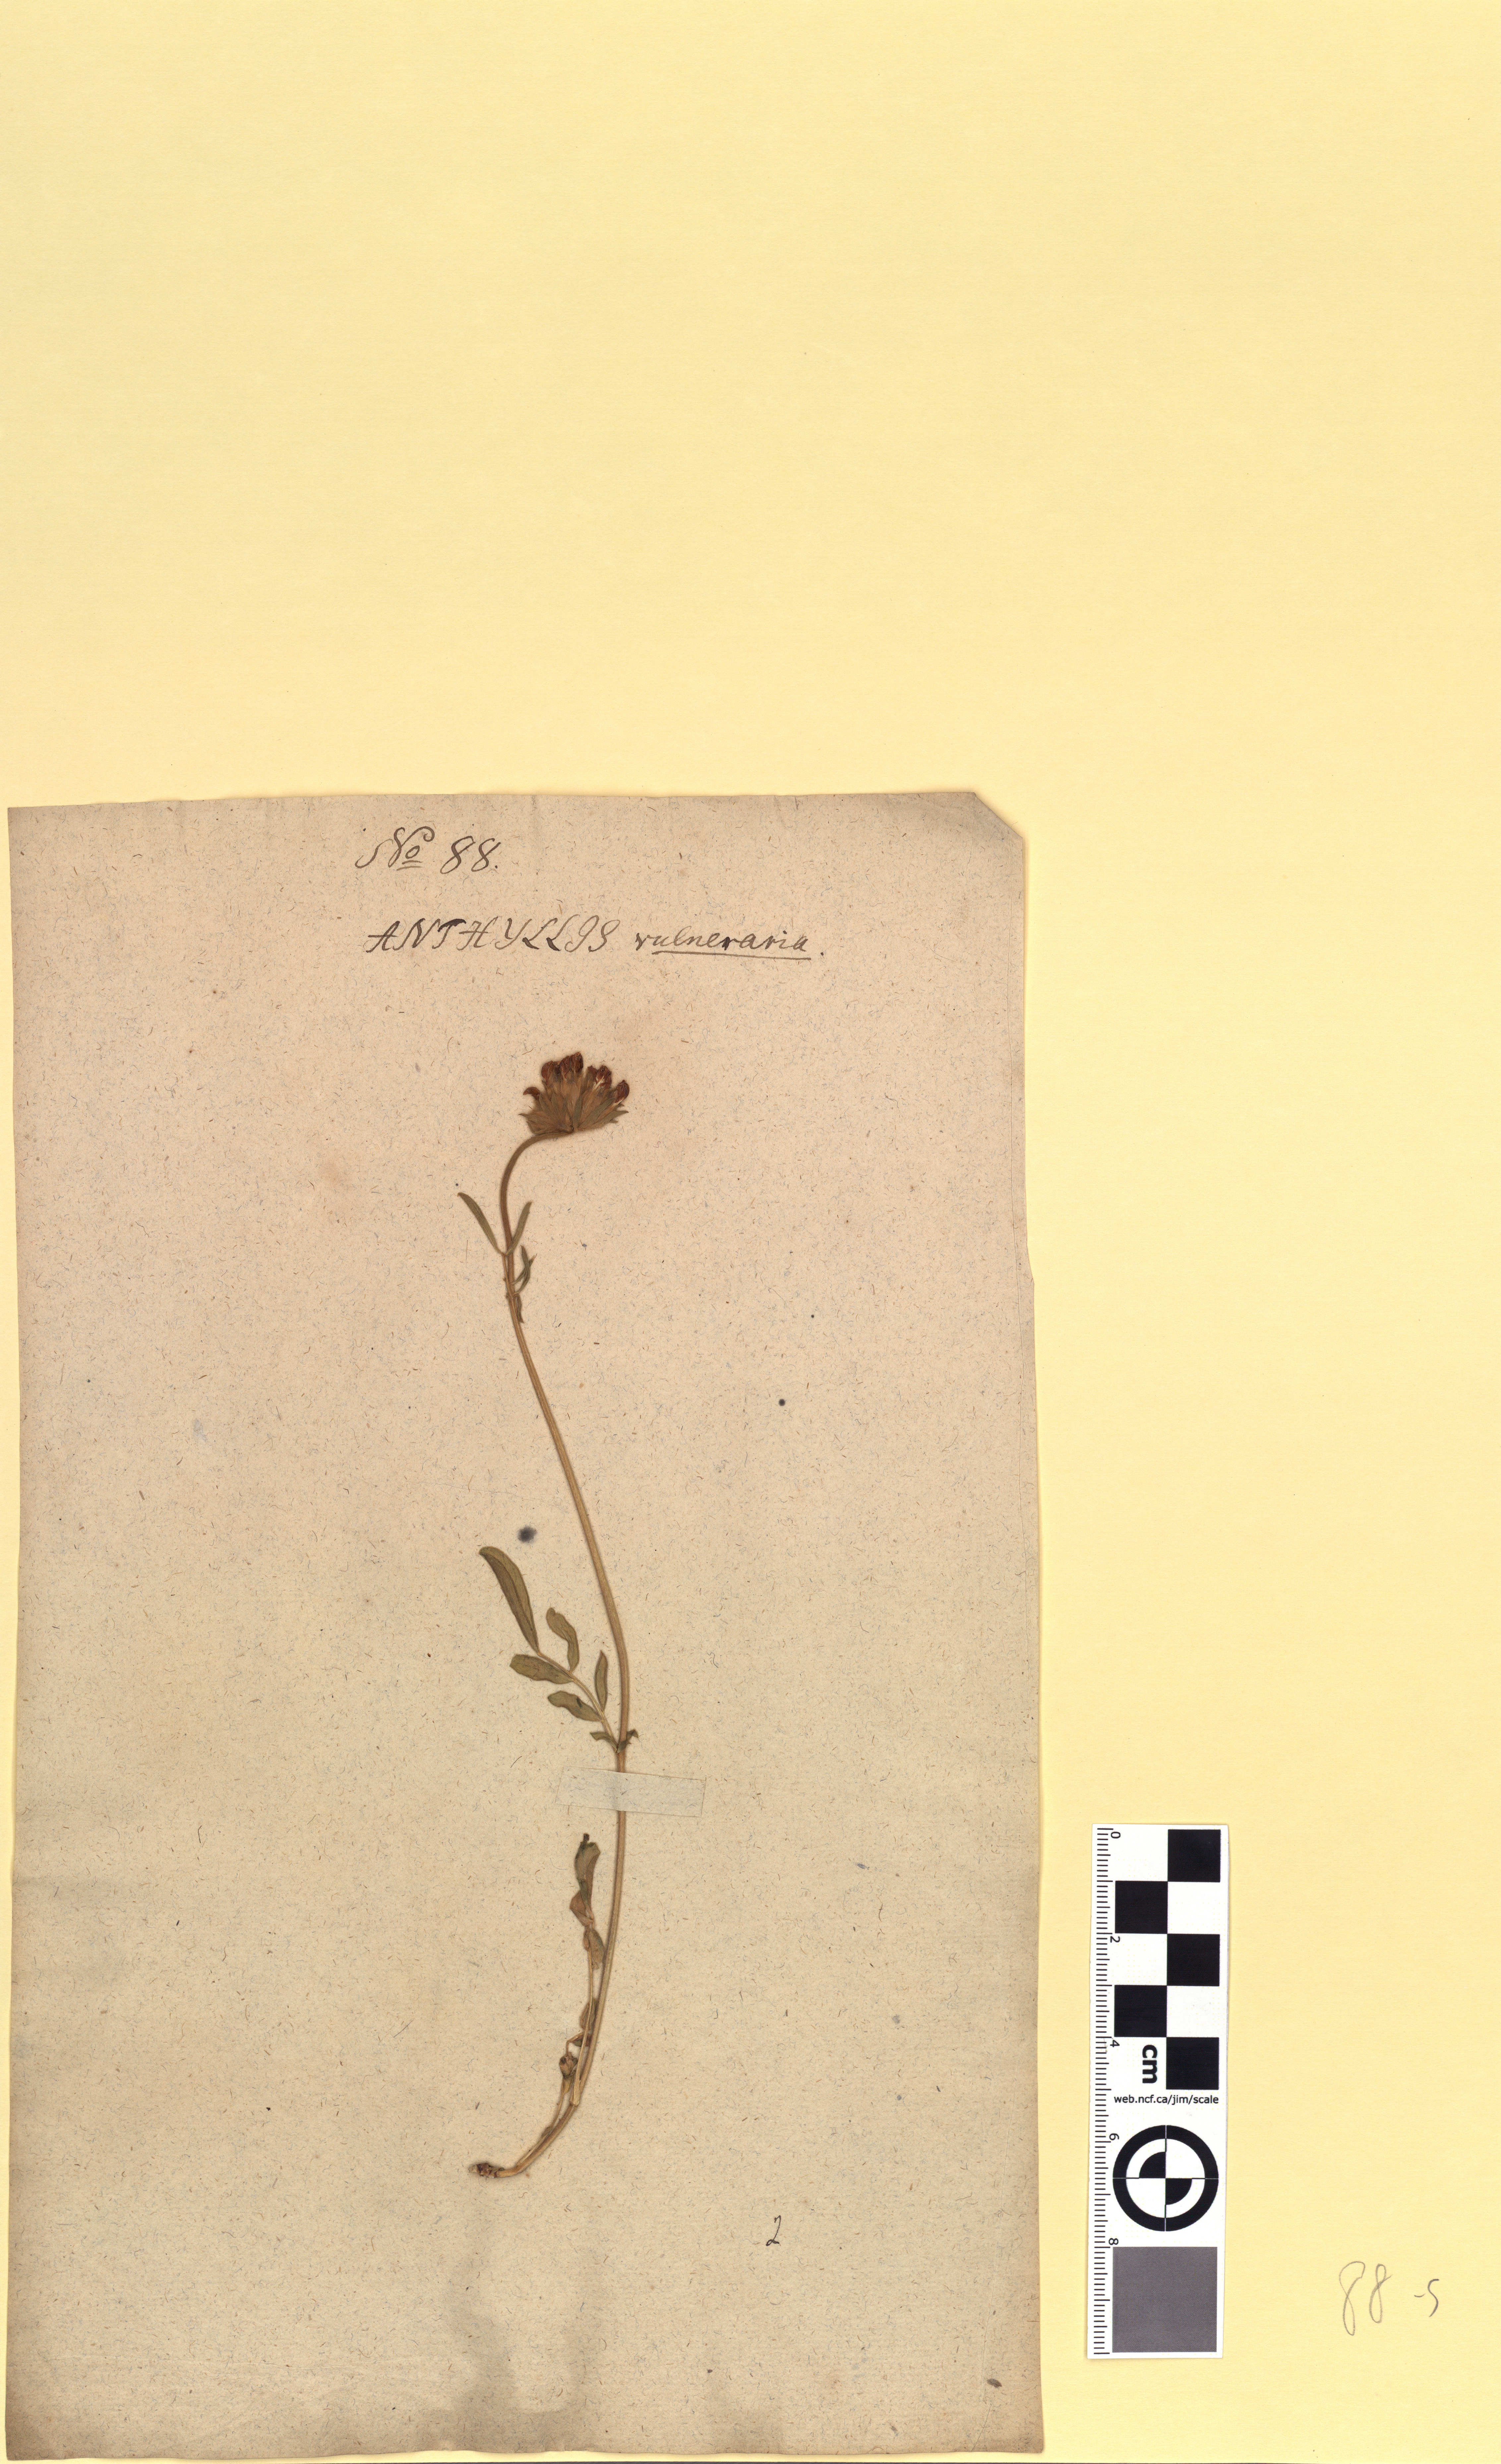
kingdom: Plantae
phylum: Tracheophyta
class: Magnoliopsida
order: Fabales
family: Fabaceae
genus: Anthyllis
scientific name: Anthyllis vulneraria
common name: Kidney vetch
